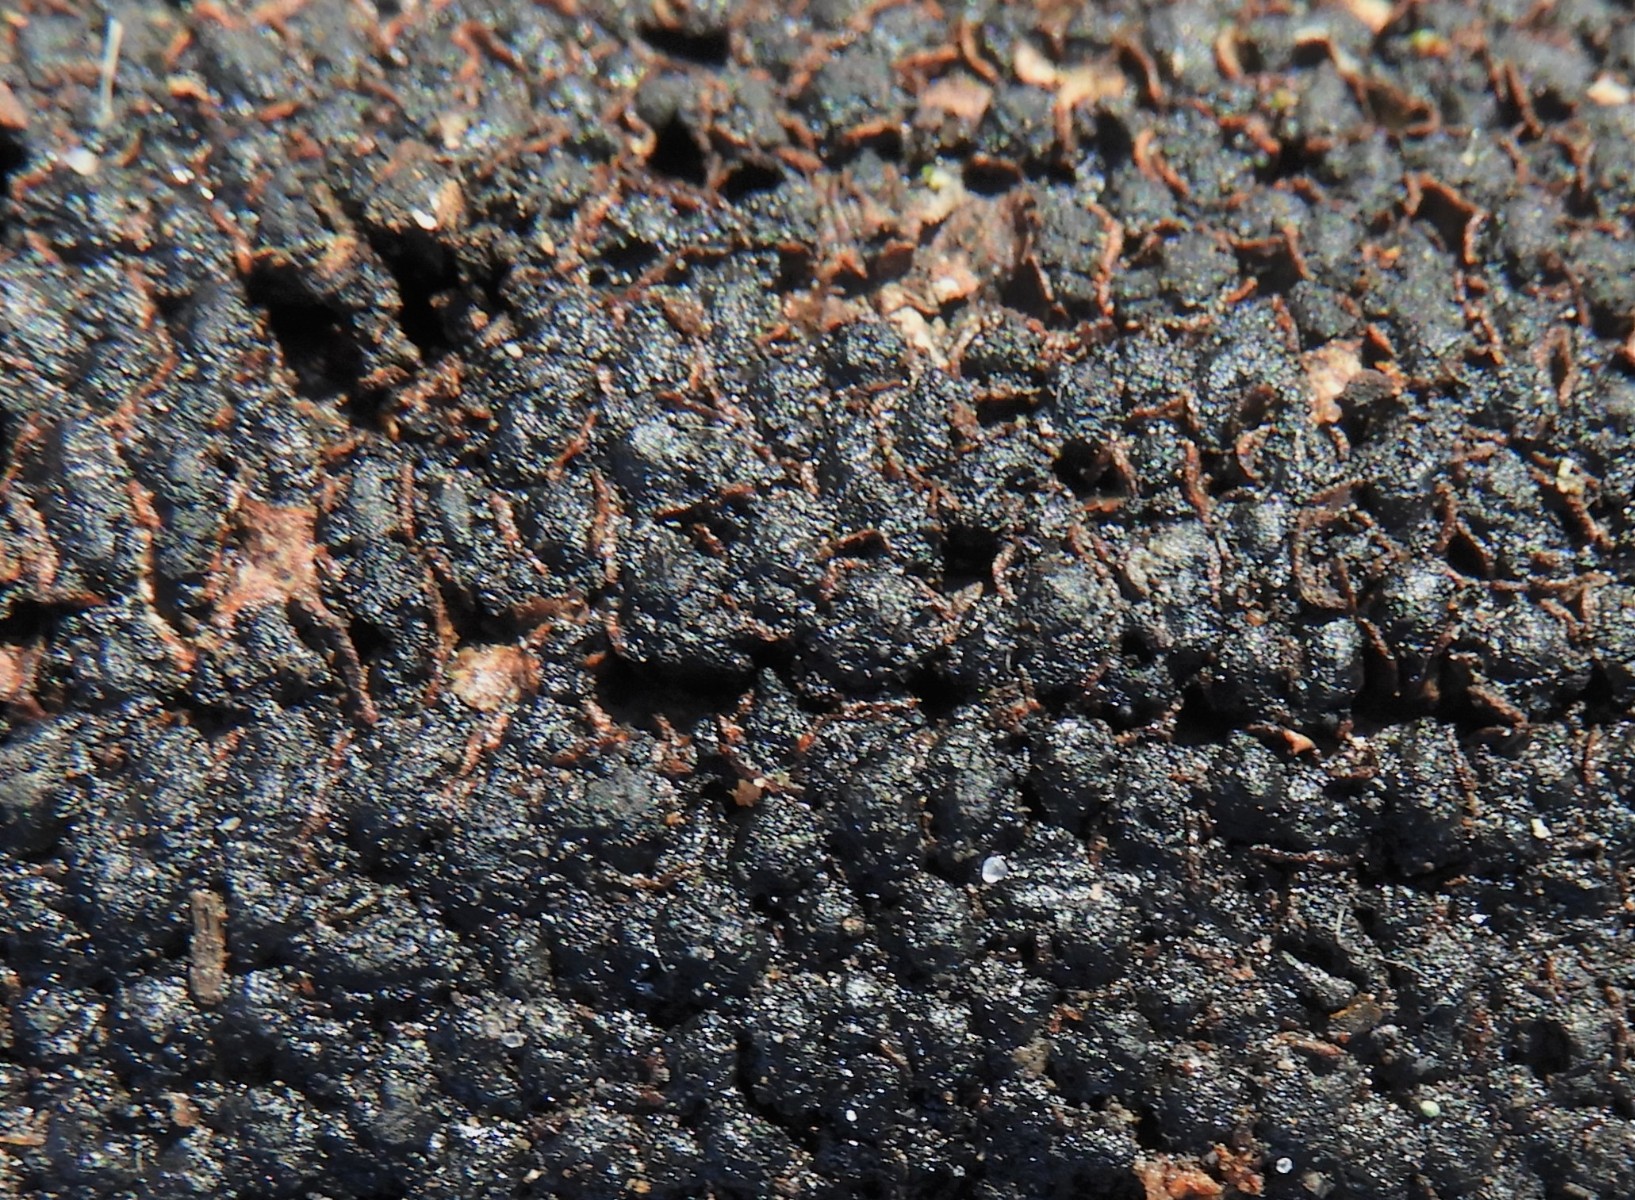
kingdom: Fungi
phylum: Ascomycota
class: Sordariomycetes
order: Xylariales
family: Melogrammataceae
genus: Melogramma
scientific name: Melogramma spiniferum
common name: bøgefod-kulhals
